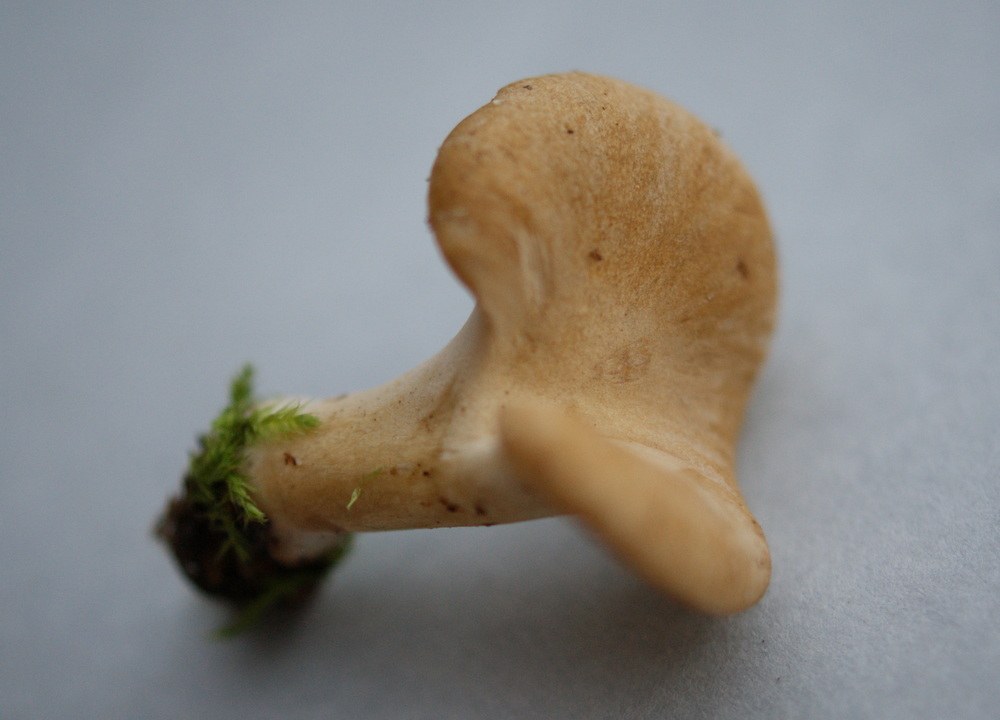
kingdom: Fungi
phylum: Basidiomycota
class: Agaricomycetes
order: Polyporales
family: Polyporaceae
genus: Cerioporus
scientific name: Cerioporus varius
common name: foranderlig stilkporesvamp
